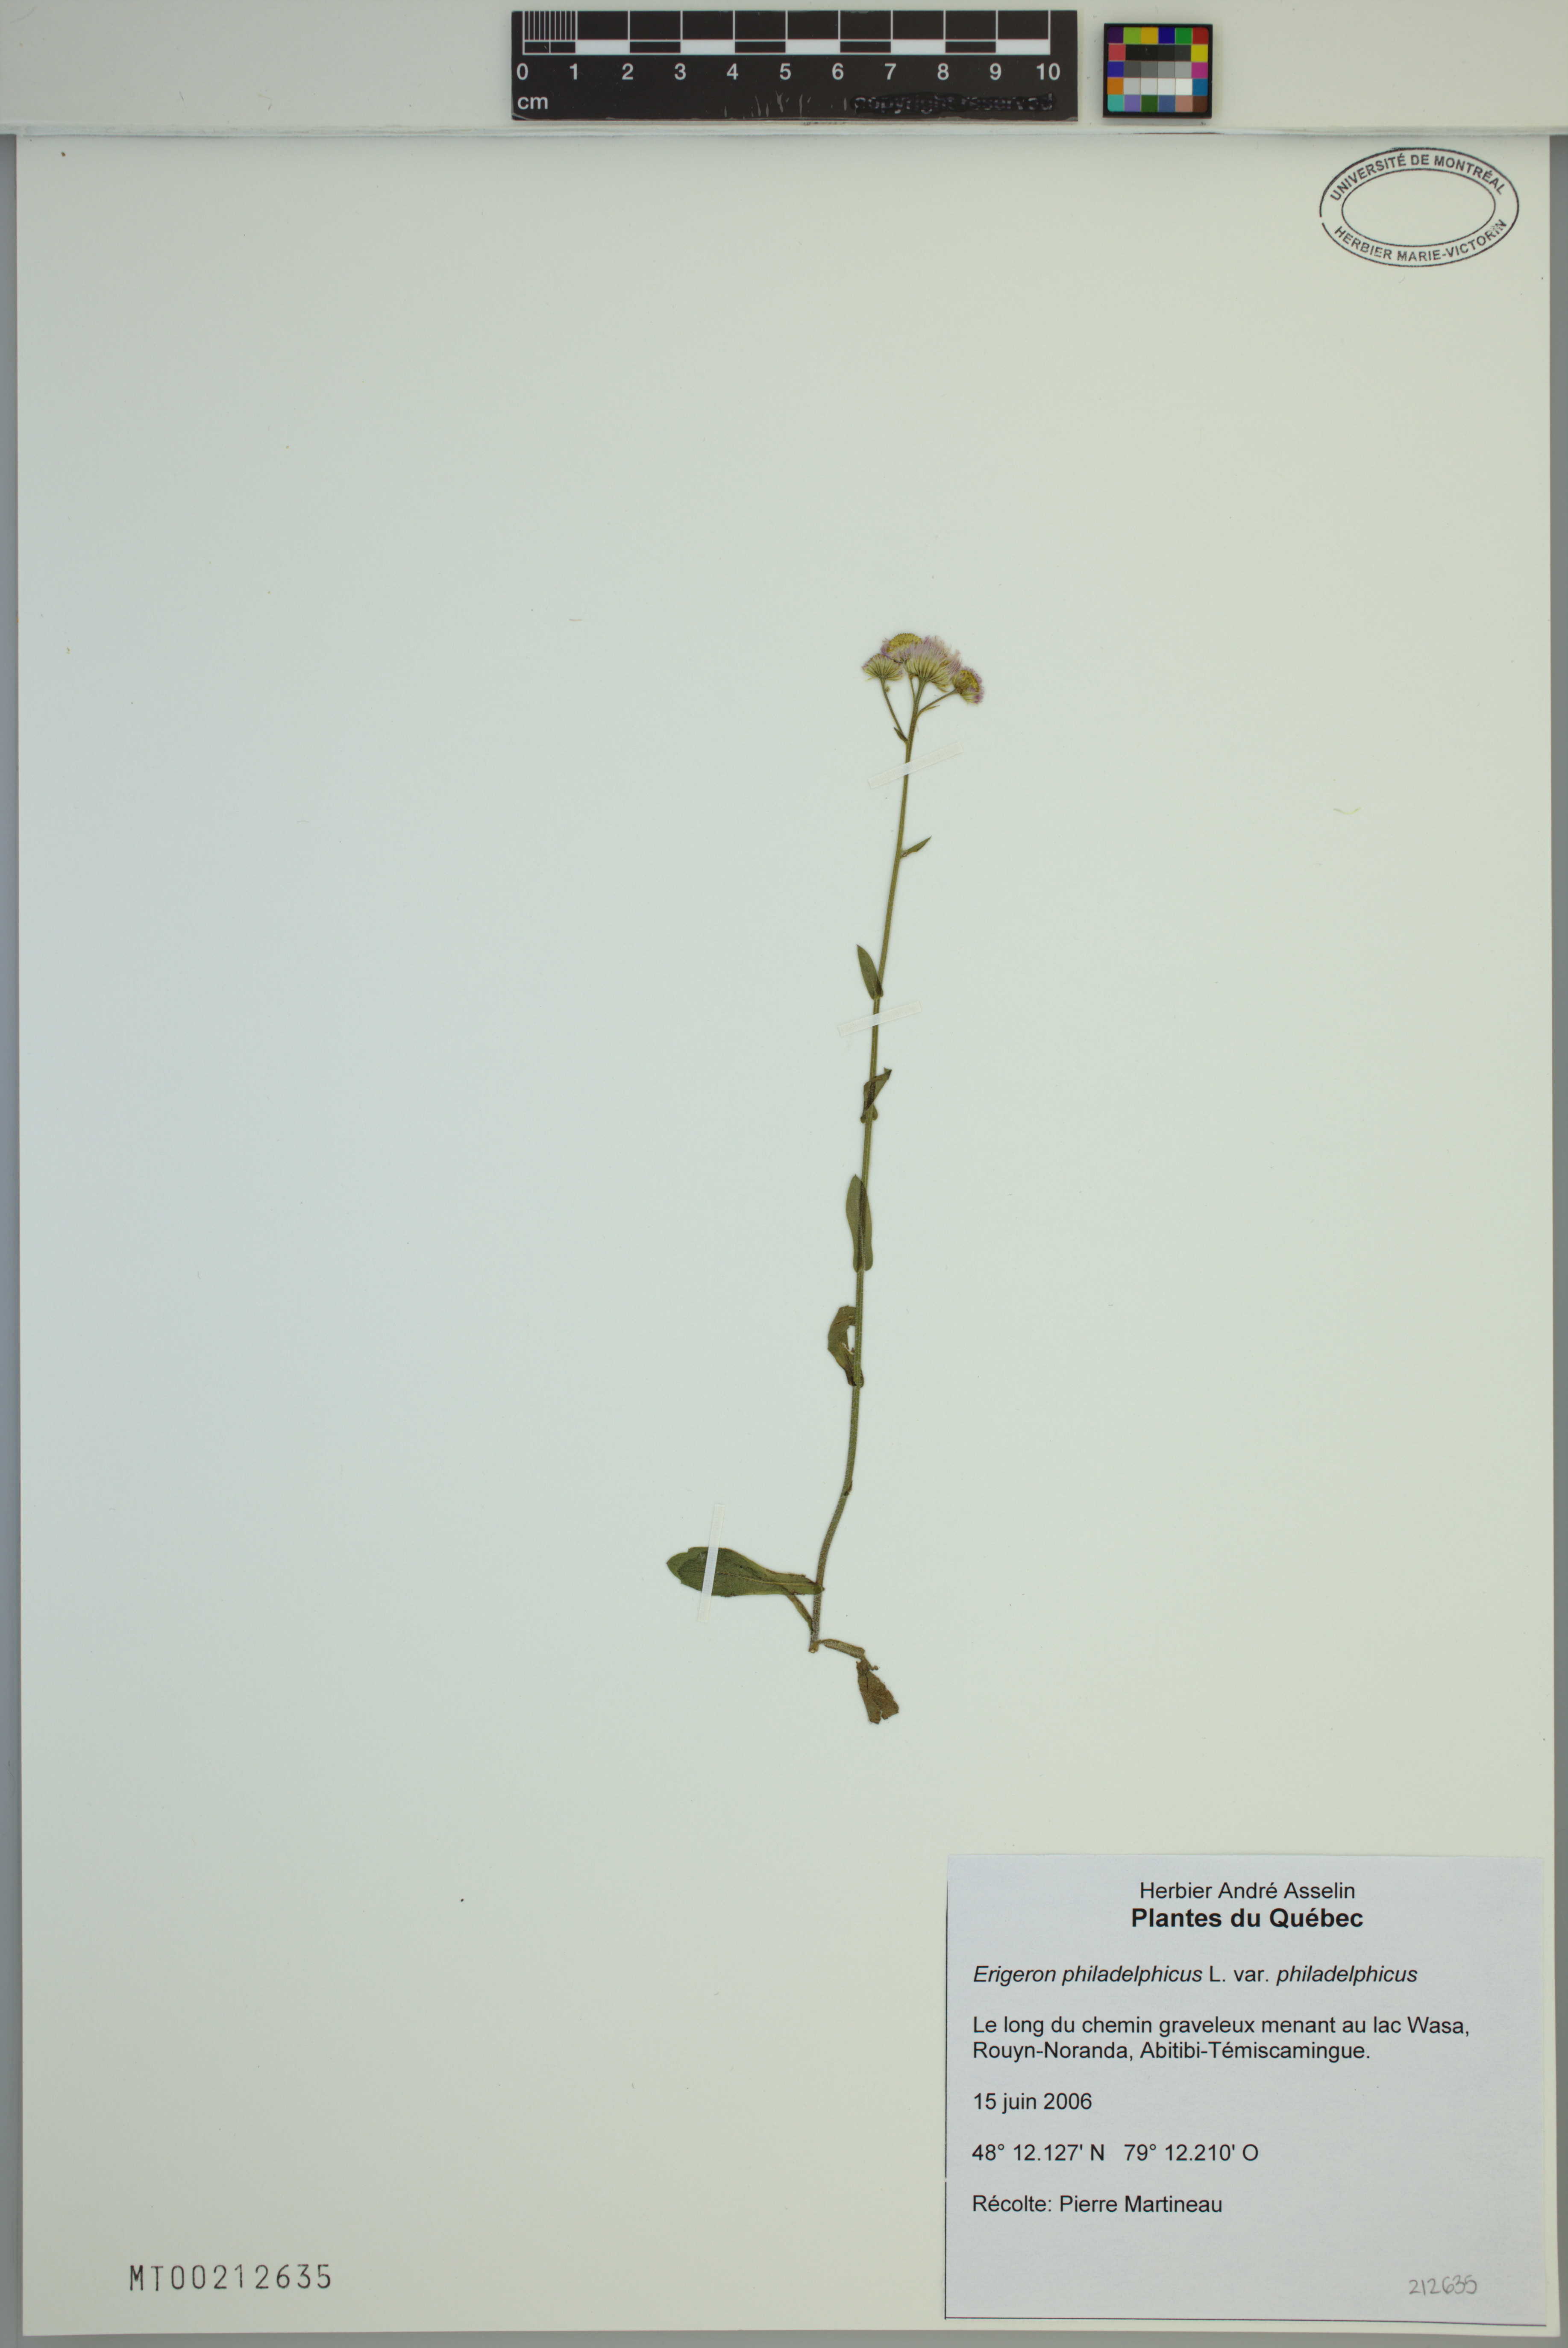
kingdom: Plantae
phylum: Tracheophyta
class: Magnoliopsida
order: Asterales
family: Asteraceae
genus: Erigeron
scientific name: Erigeron philadelphicus
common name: Robin's-plantain
